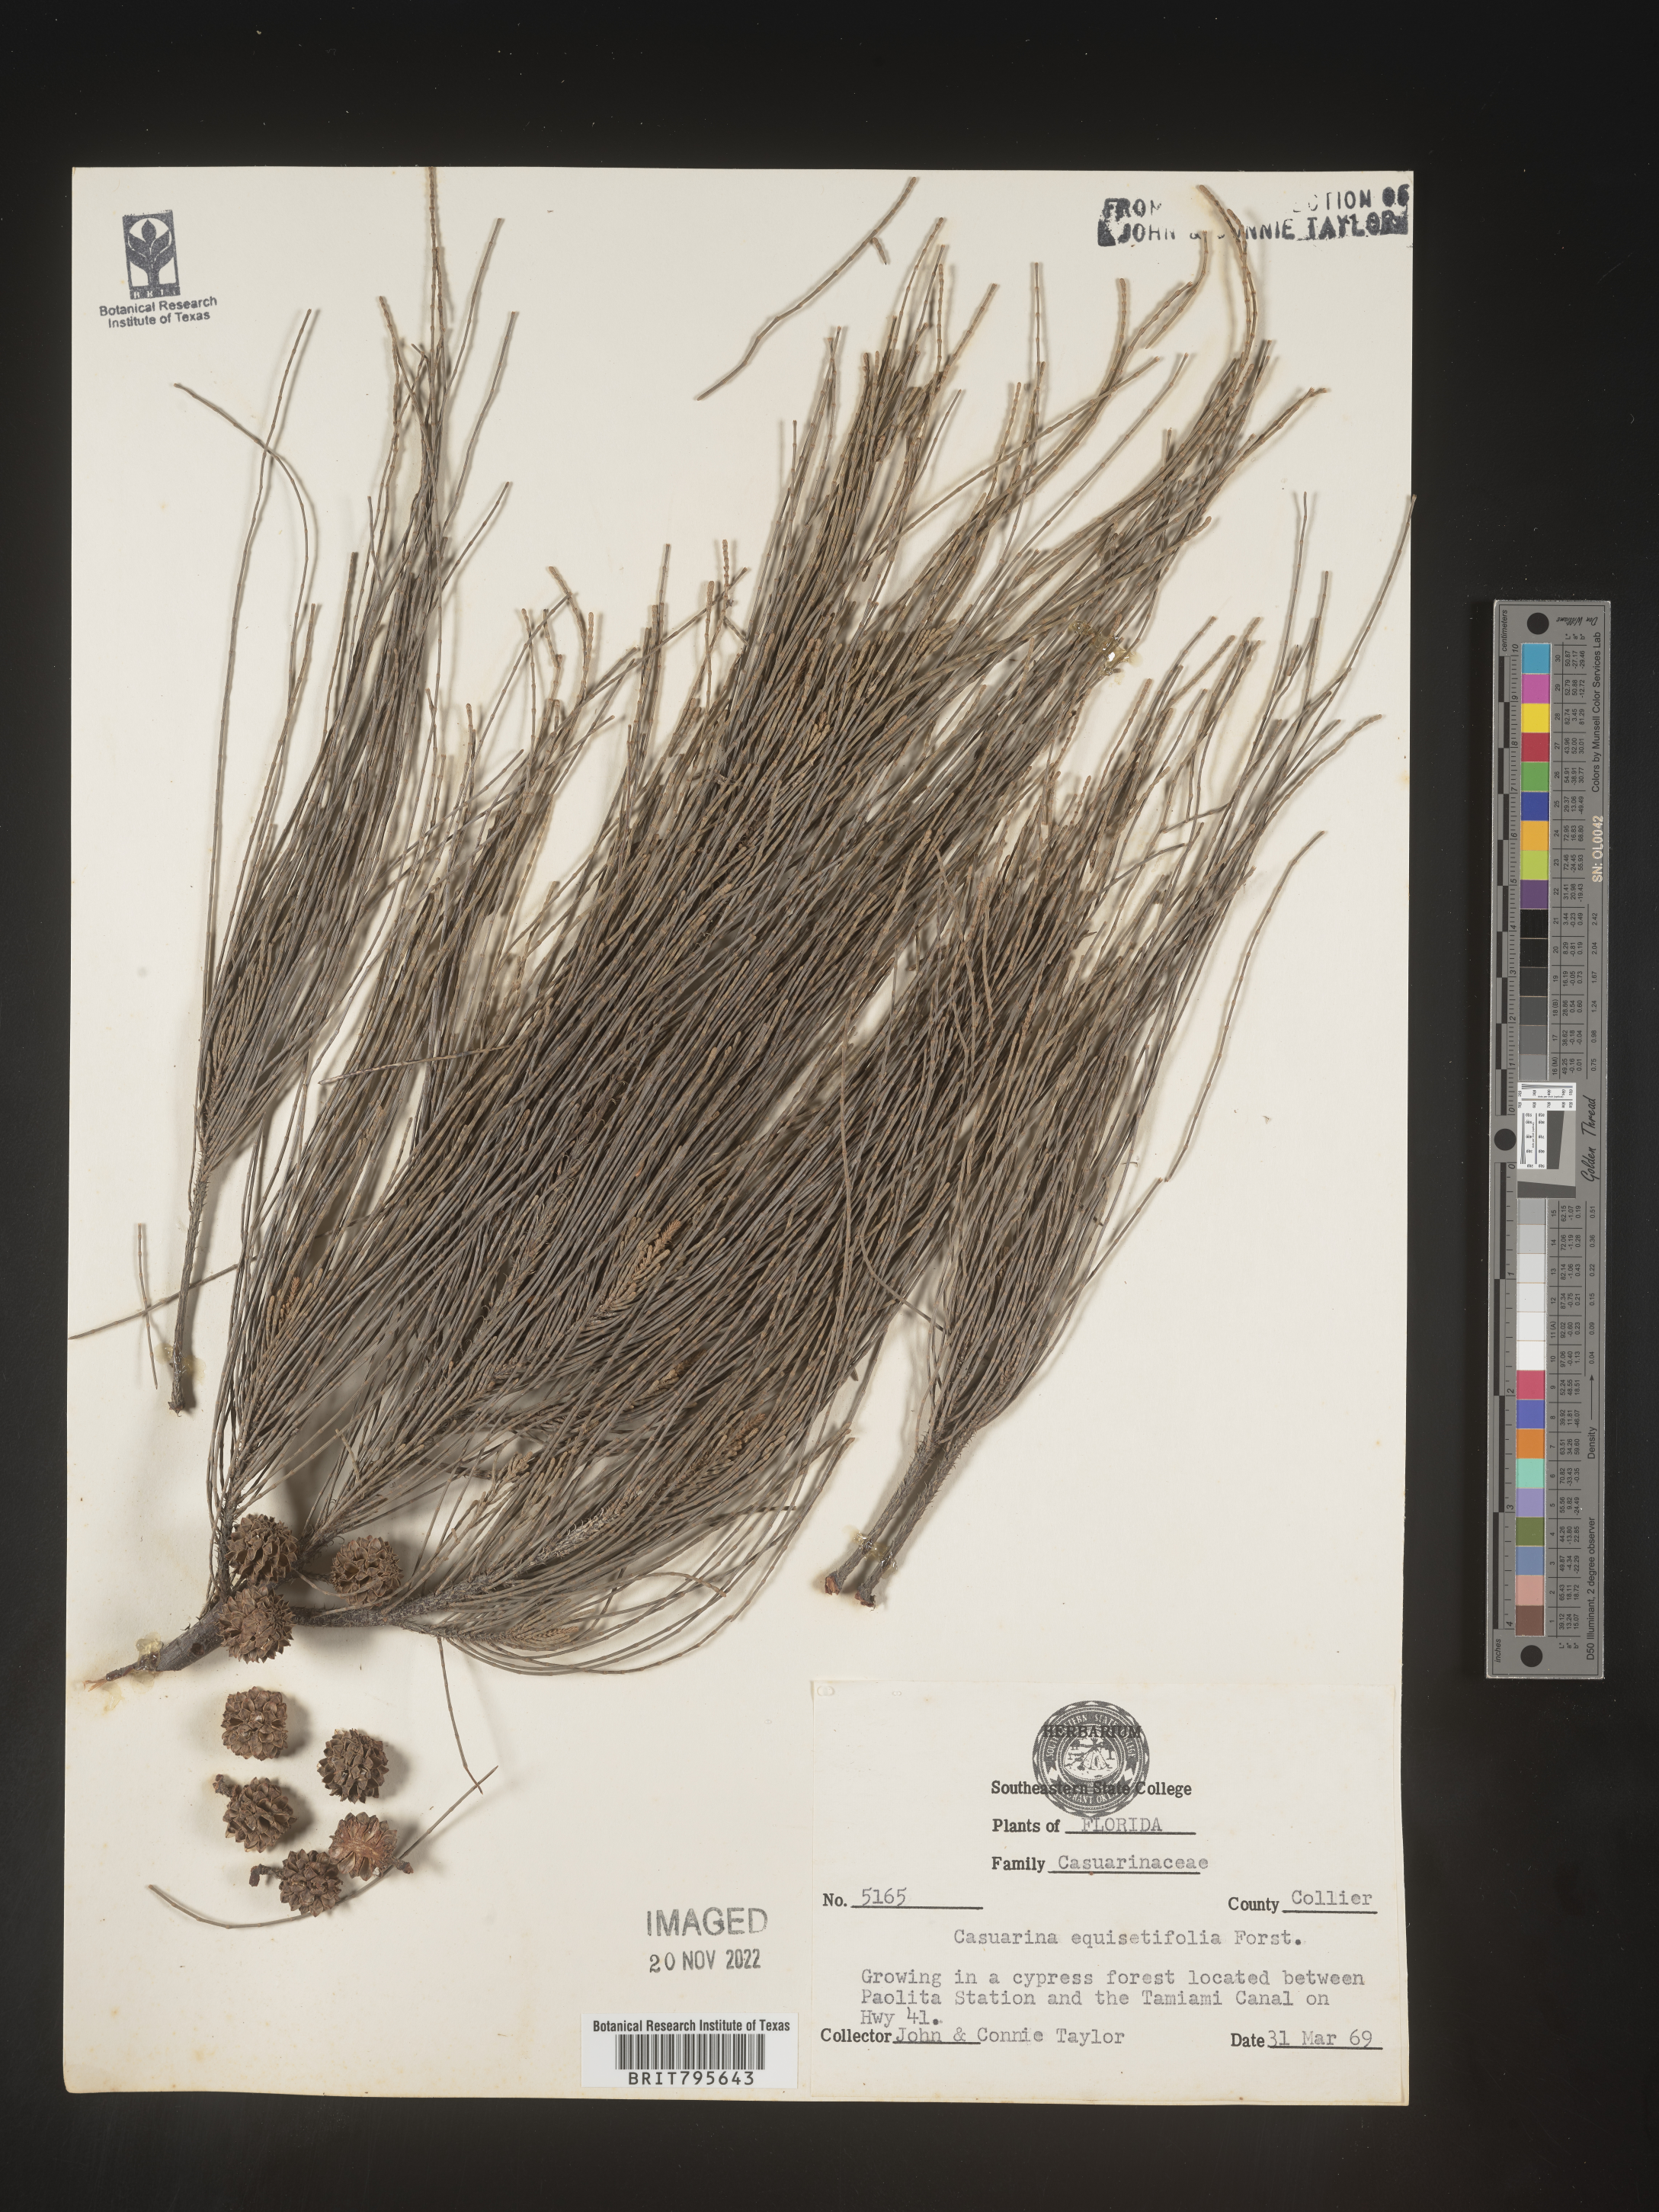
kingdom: Plantae
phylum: Tracheophyta
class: Magnoliopsida
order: Fagales
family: Casuarinaceae
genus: Casuarina
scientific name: Casuarina equisetifolia
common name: Beach sheoak
